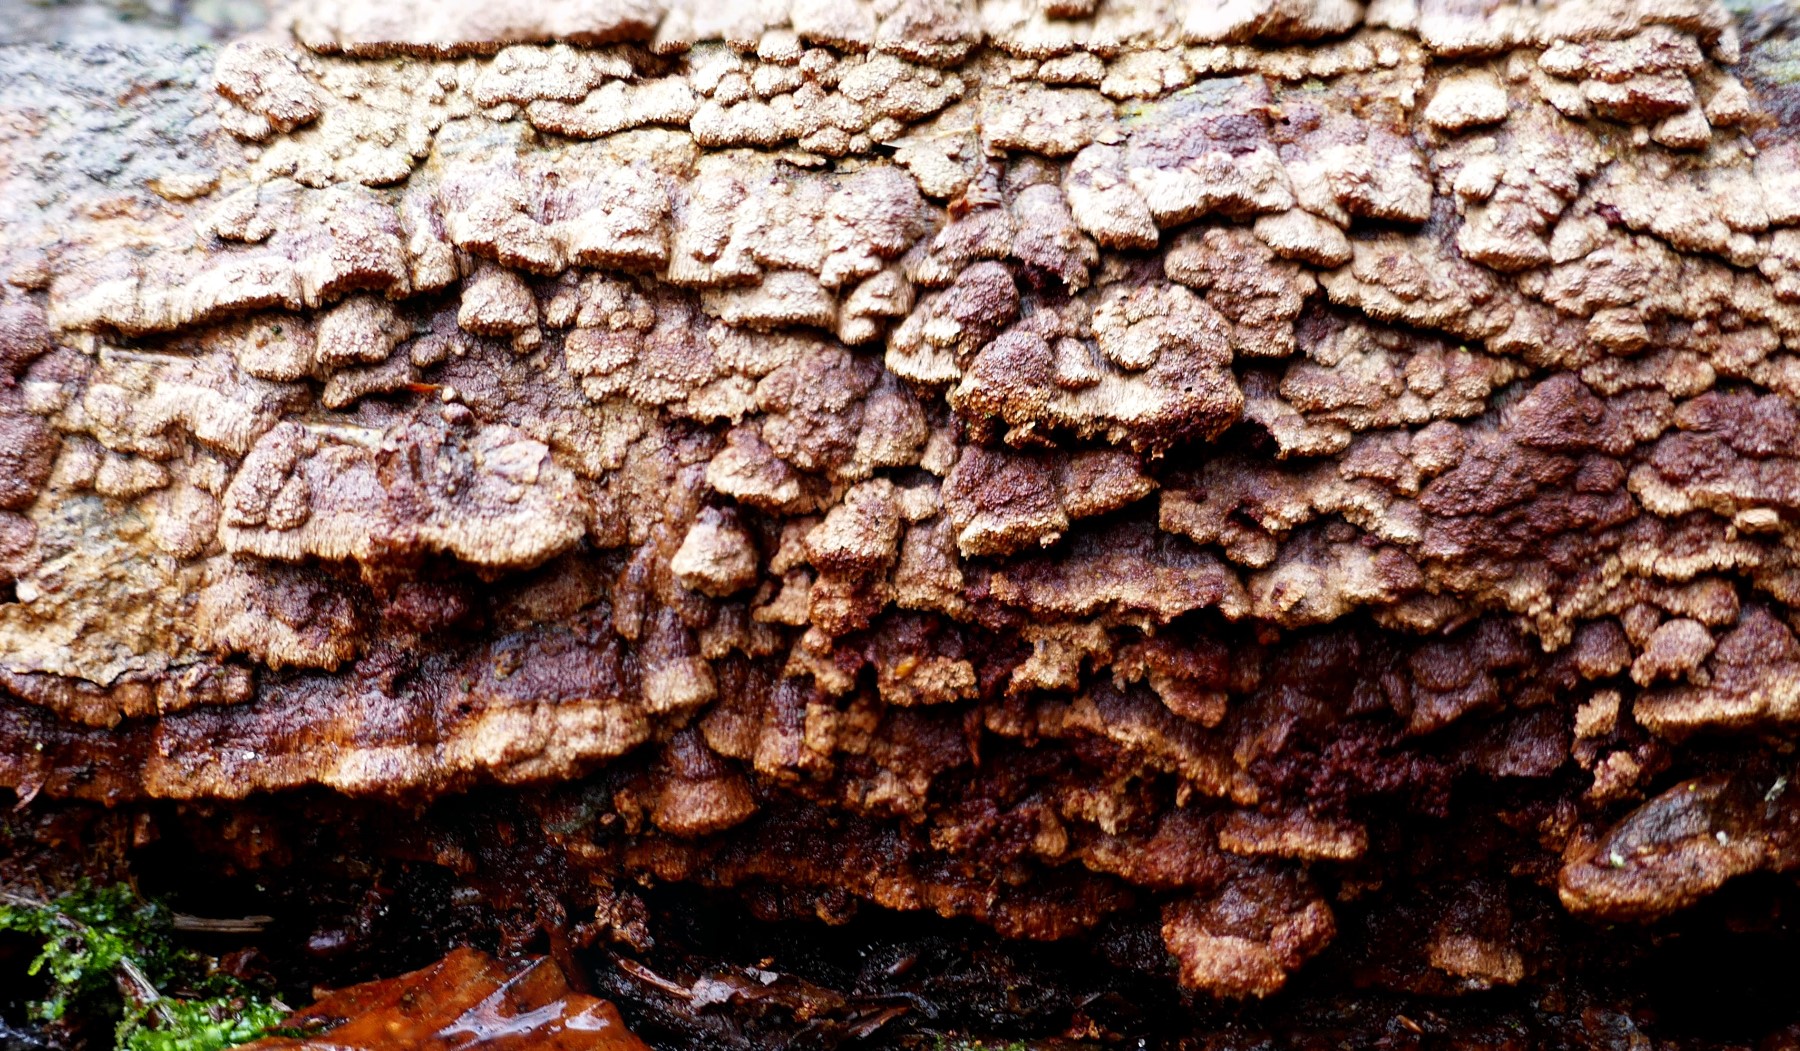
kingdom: Fungi
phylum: Basidiomycota
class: Agaricomycetes
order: Hymenochaetales
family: Hymenochaetaceae
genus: Fuscoporia
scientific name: Fuscoporia ferrea
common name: skorpe-ildporesvamp
